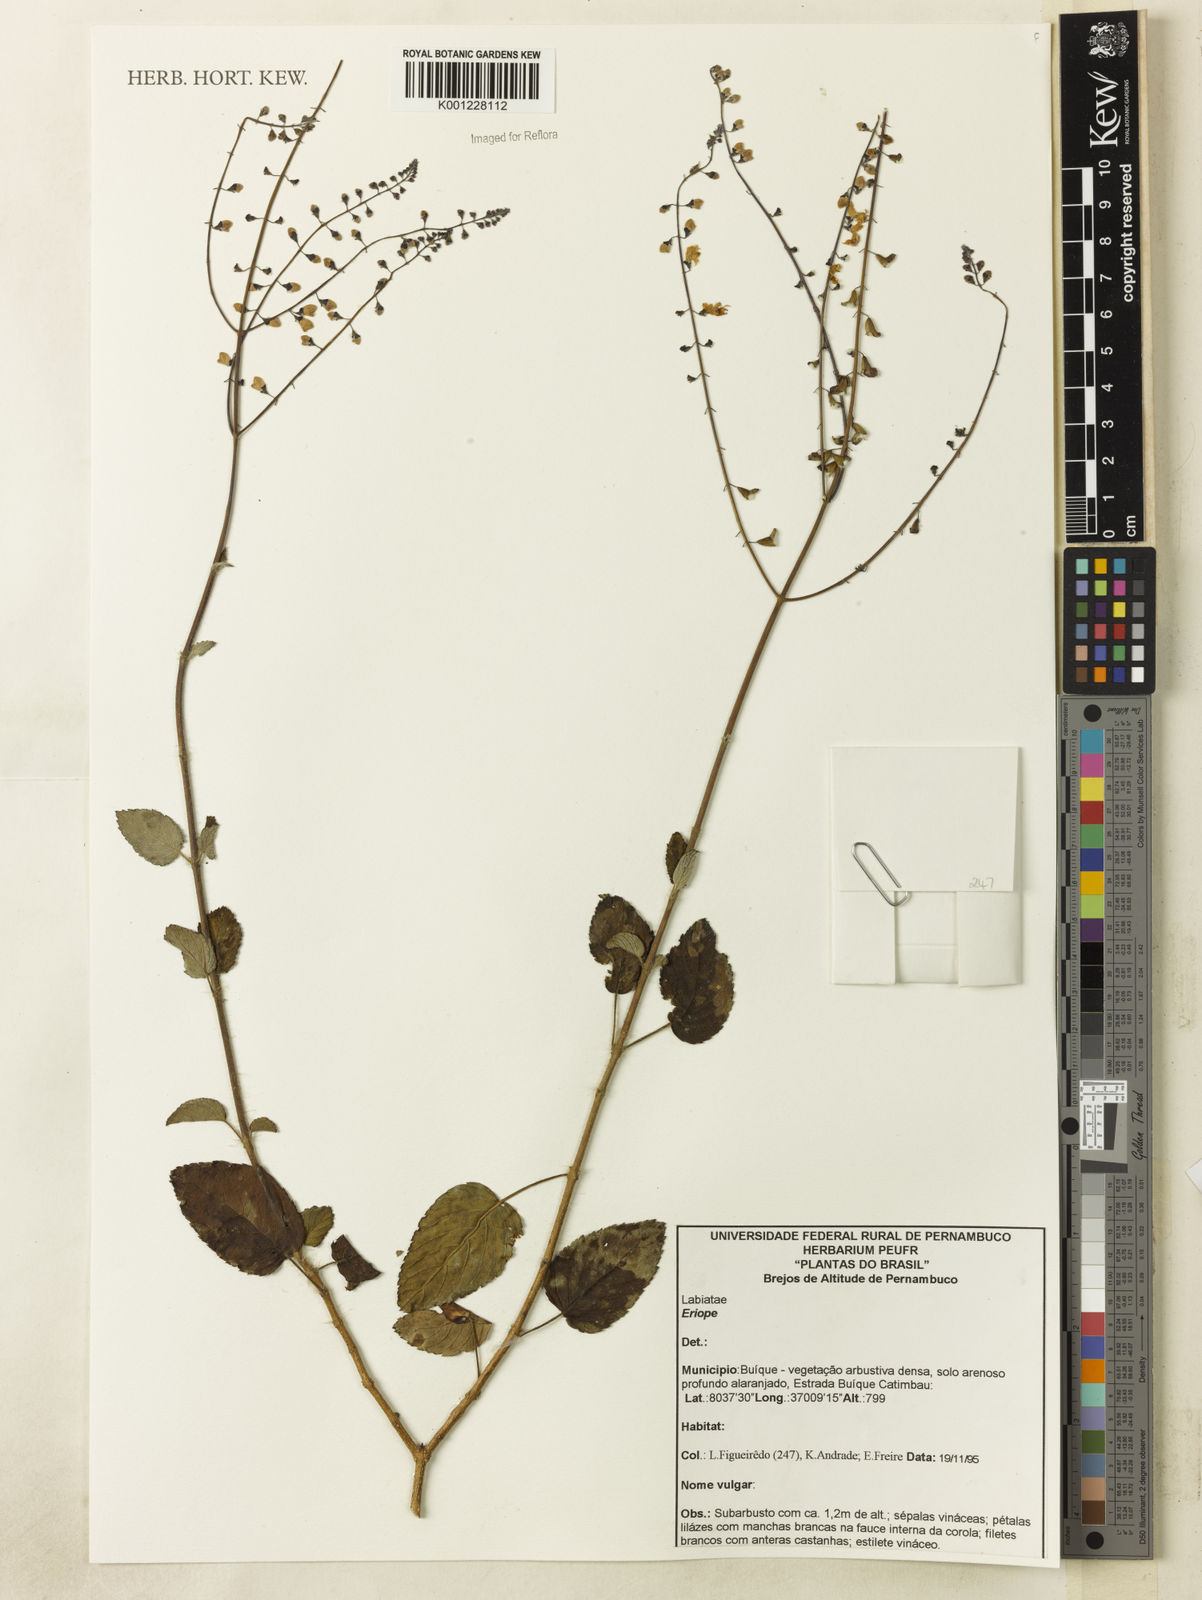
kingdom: Plantae
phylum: Tracheophyta
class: Magnoliopsida
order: Lamiales
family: Lamiaceae
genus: Eriope
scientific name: Eriope
